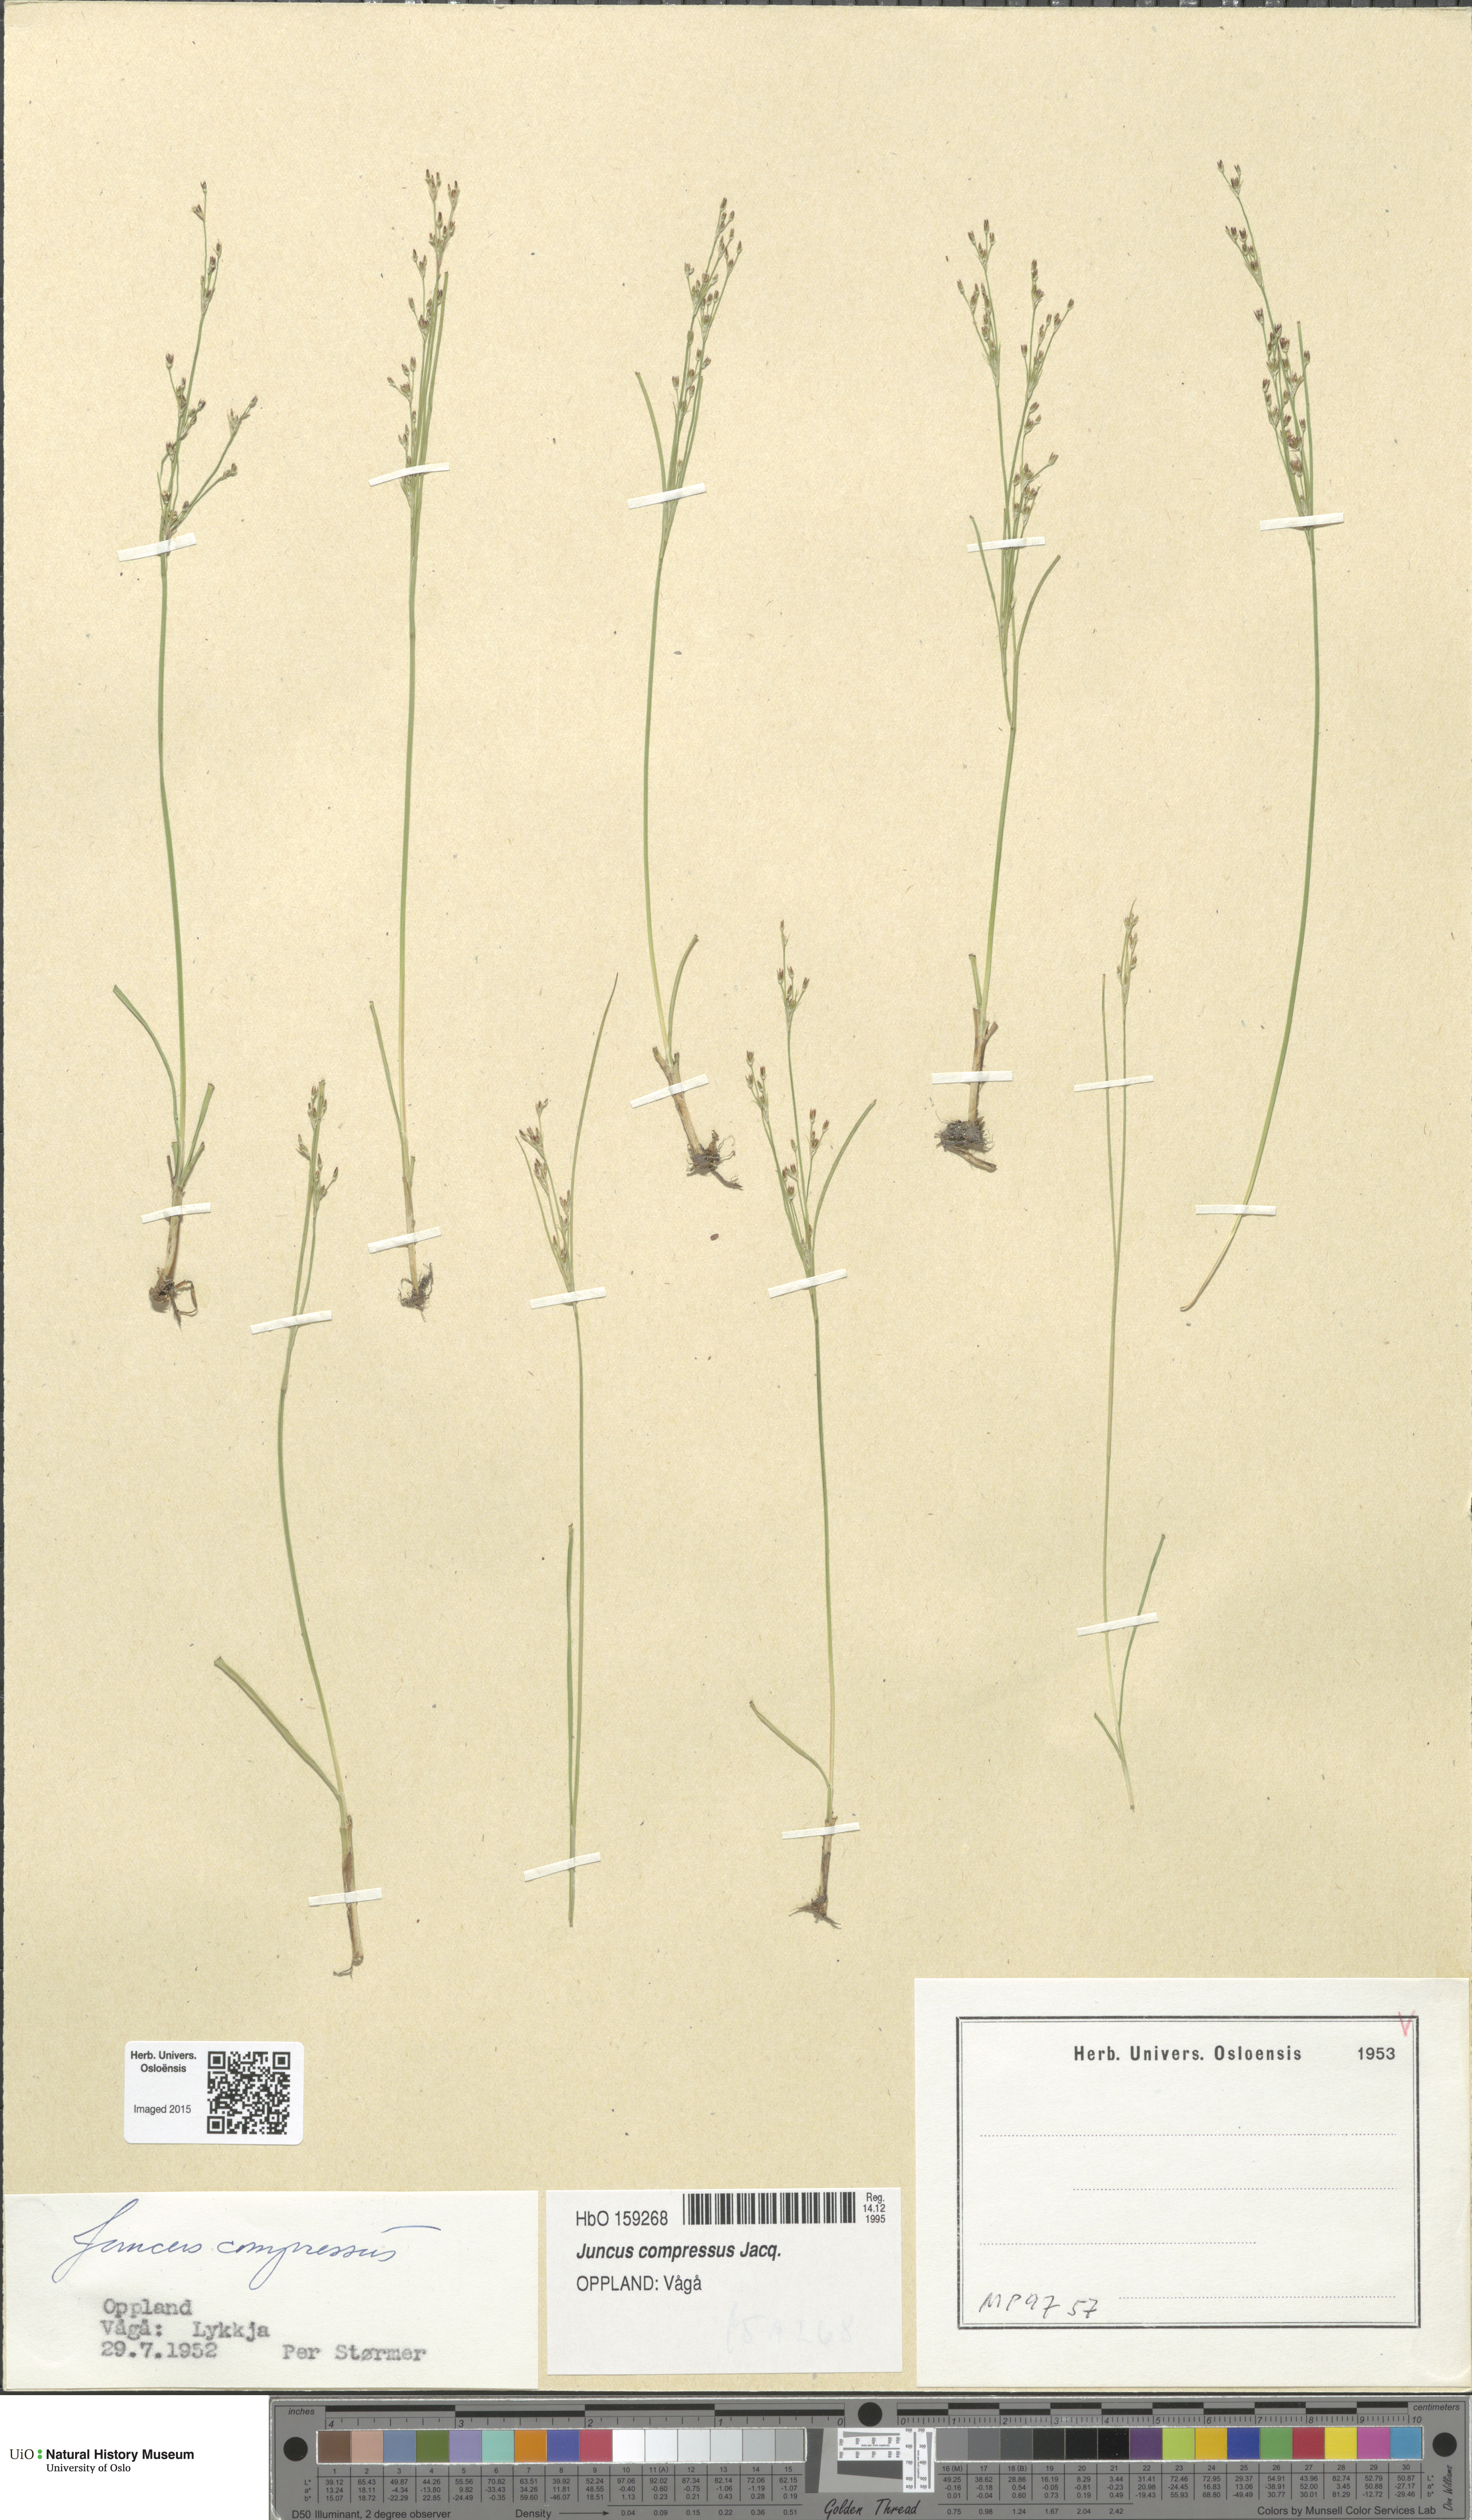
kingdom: Plantae
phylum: Tracheophyta
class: Liliopsida
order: Poales
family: Juncaceae
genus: Juncus
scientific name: Juncus compressus
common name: Round-fruited rush
